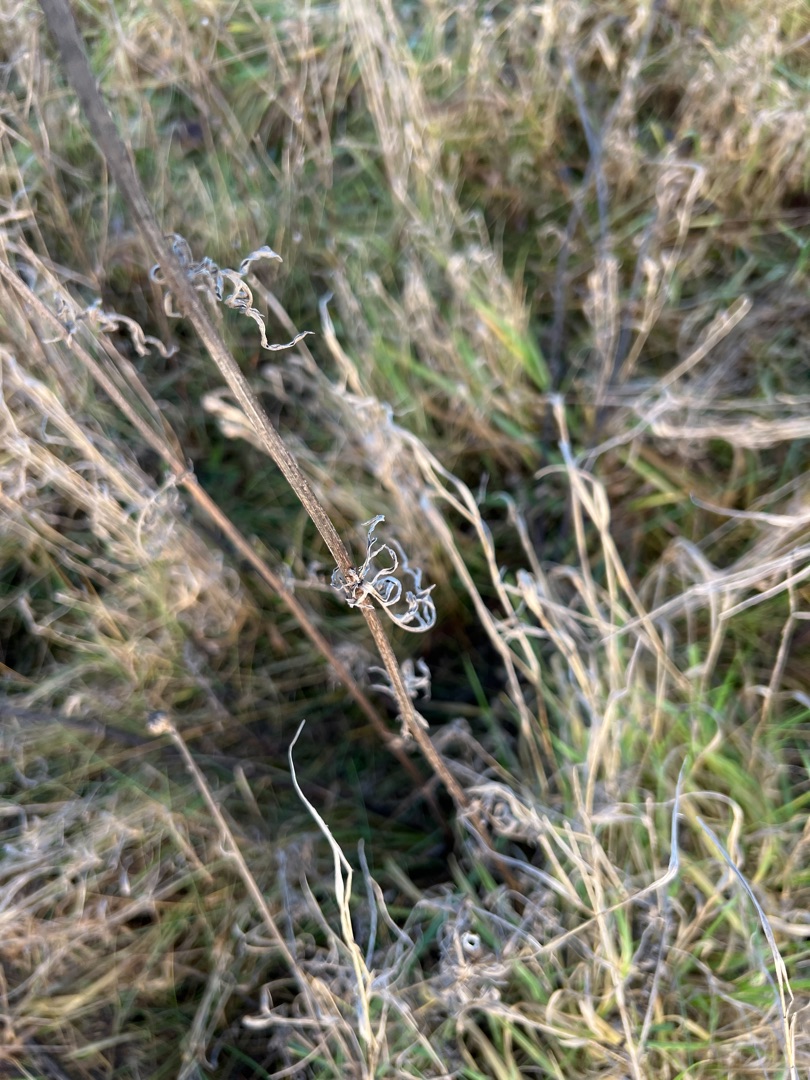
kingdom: Plantae
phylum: Tracheophyta
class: Magnoliopsida
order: Asterales
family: Asteraceae
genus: Centaurea
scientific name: Centaurea scabiosa
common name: Stor knopurt
